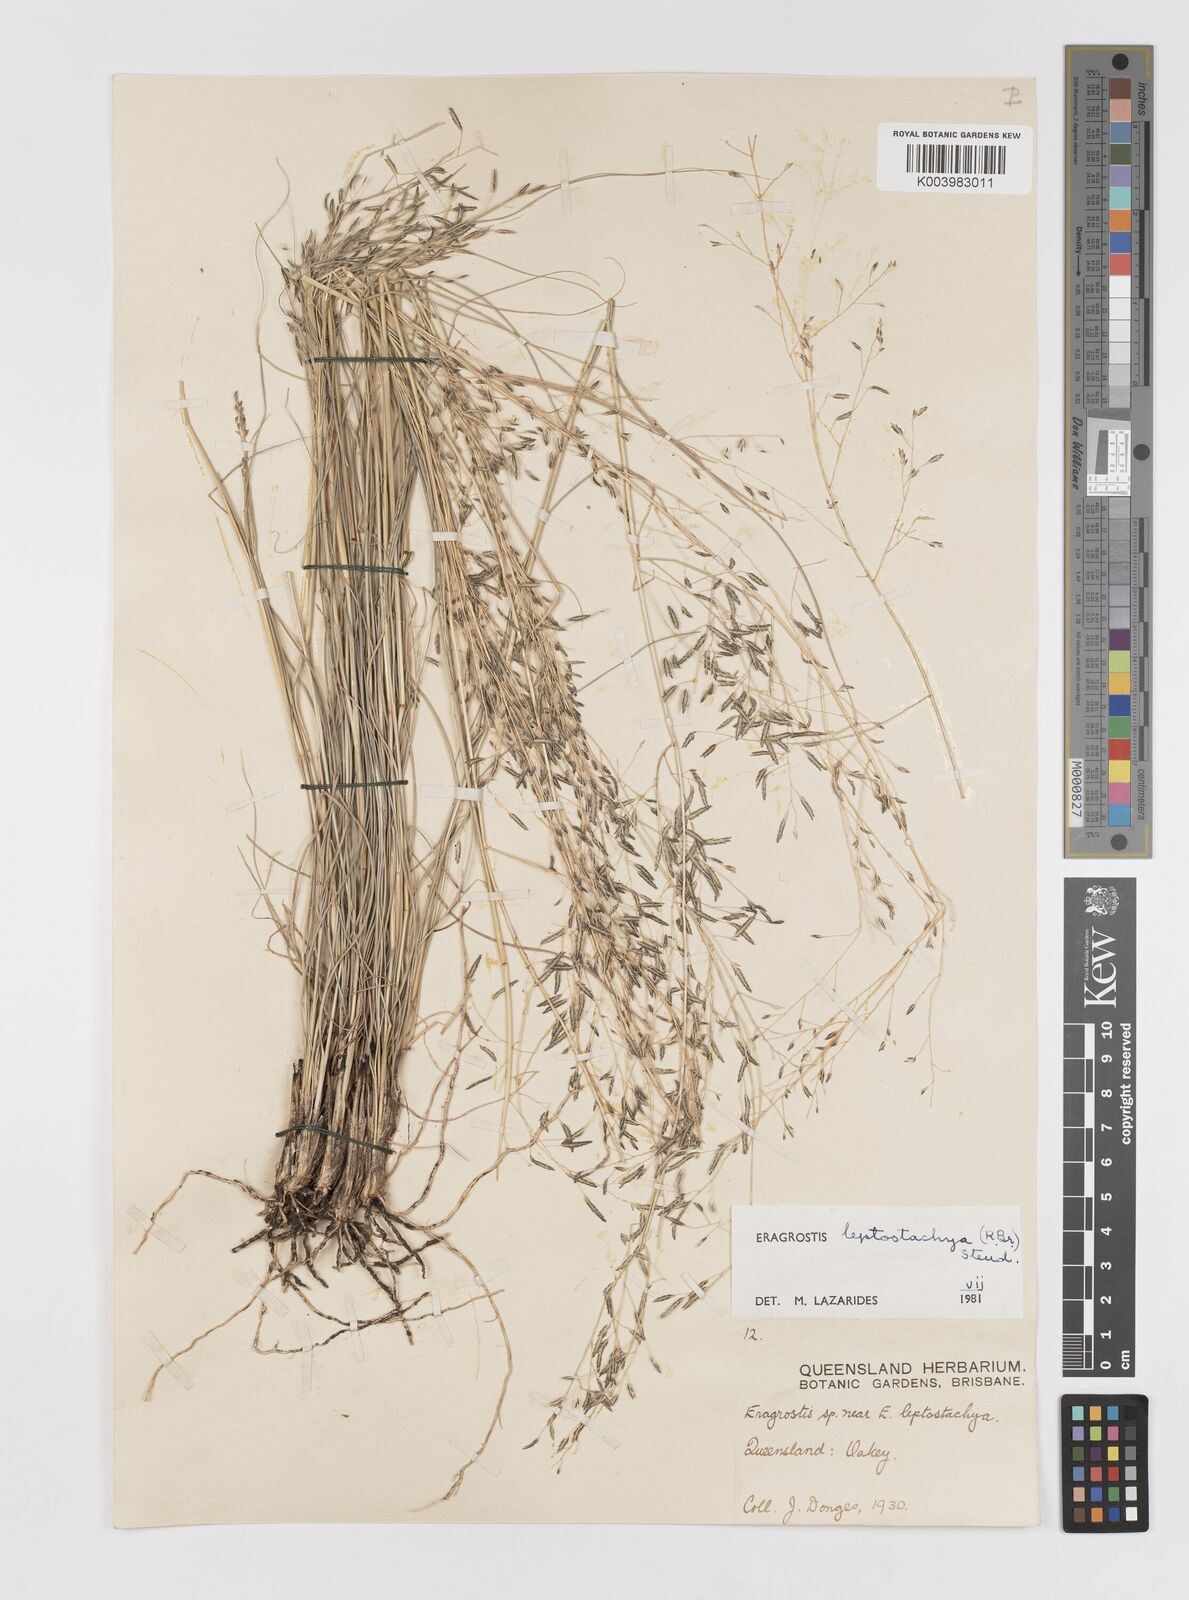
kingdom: Plantae
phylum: Tracheophyta
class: Liliopsida
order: Poales
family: Poaceae
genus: Eragrostis
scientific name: Eragrostis leptostachya
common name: Australian lovegrass
